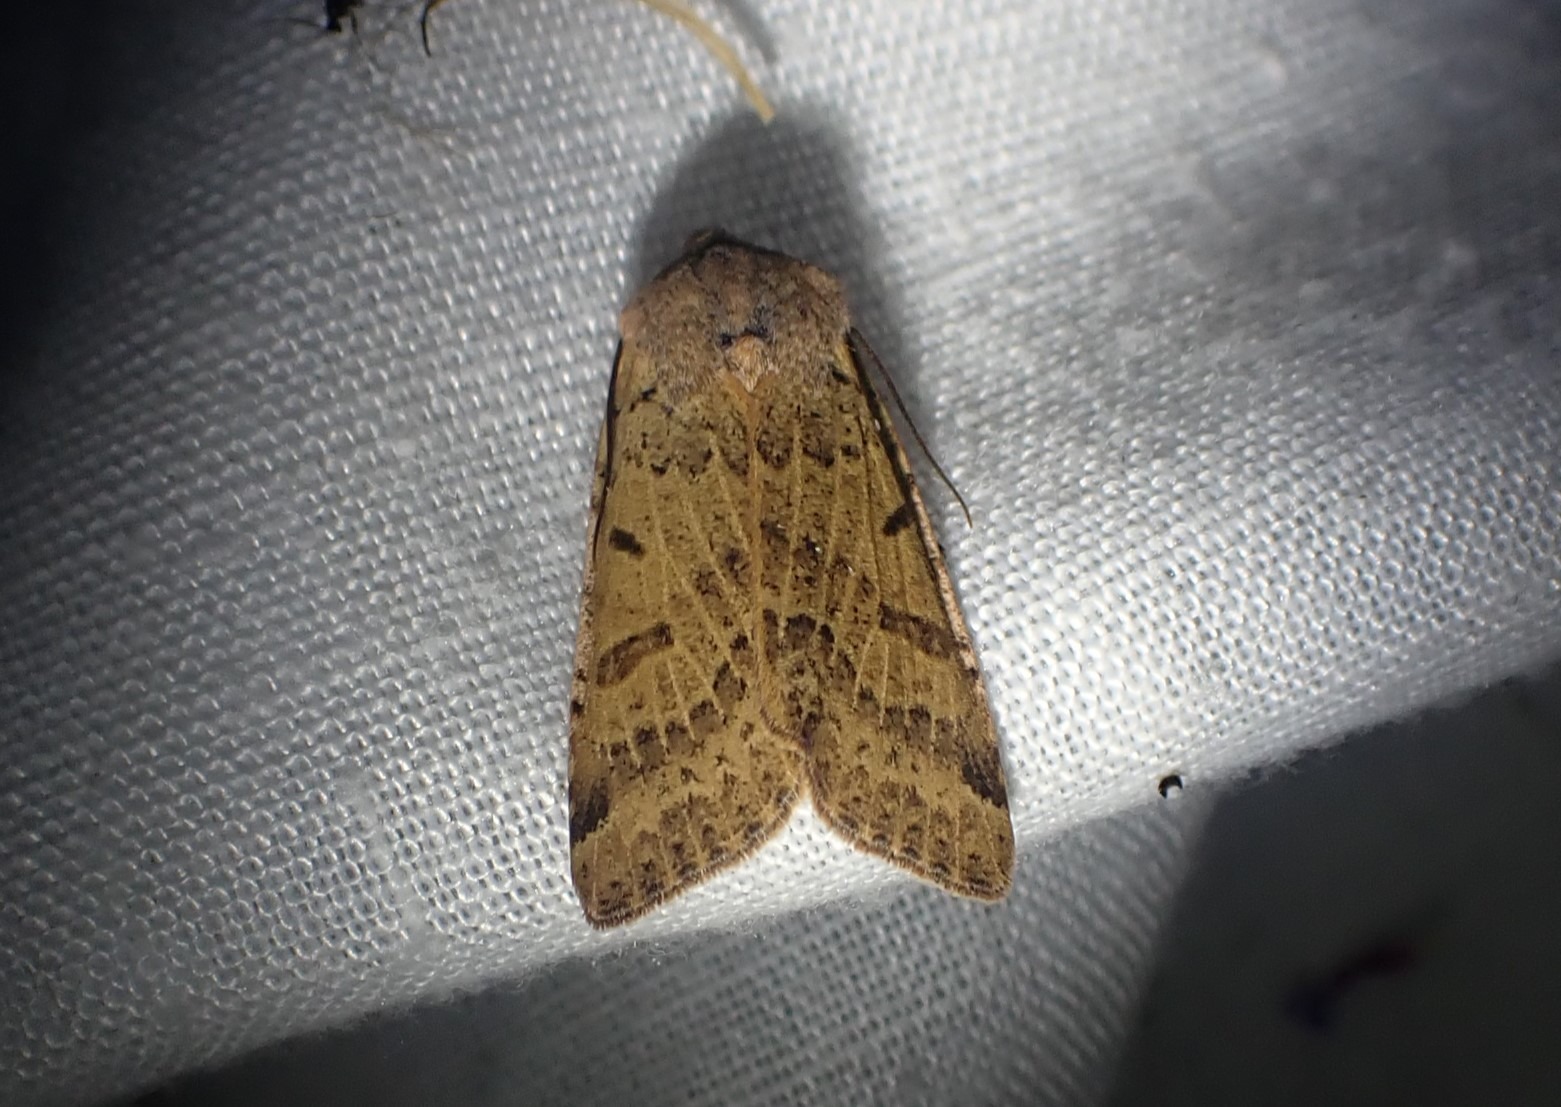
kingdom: Animalia
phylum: Arthropoda
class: Insecta
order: Lepidoptera
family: Noctuidae
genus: Agrochola
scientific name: Agrochola lychnidis
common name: Foranderlig jordfarveugle
